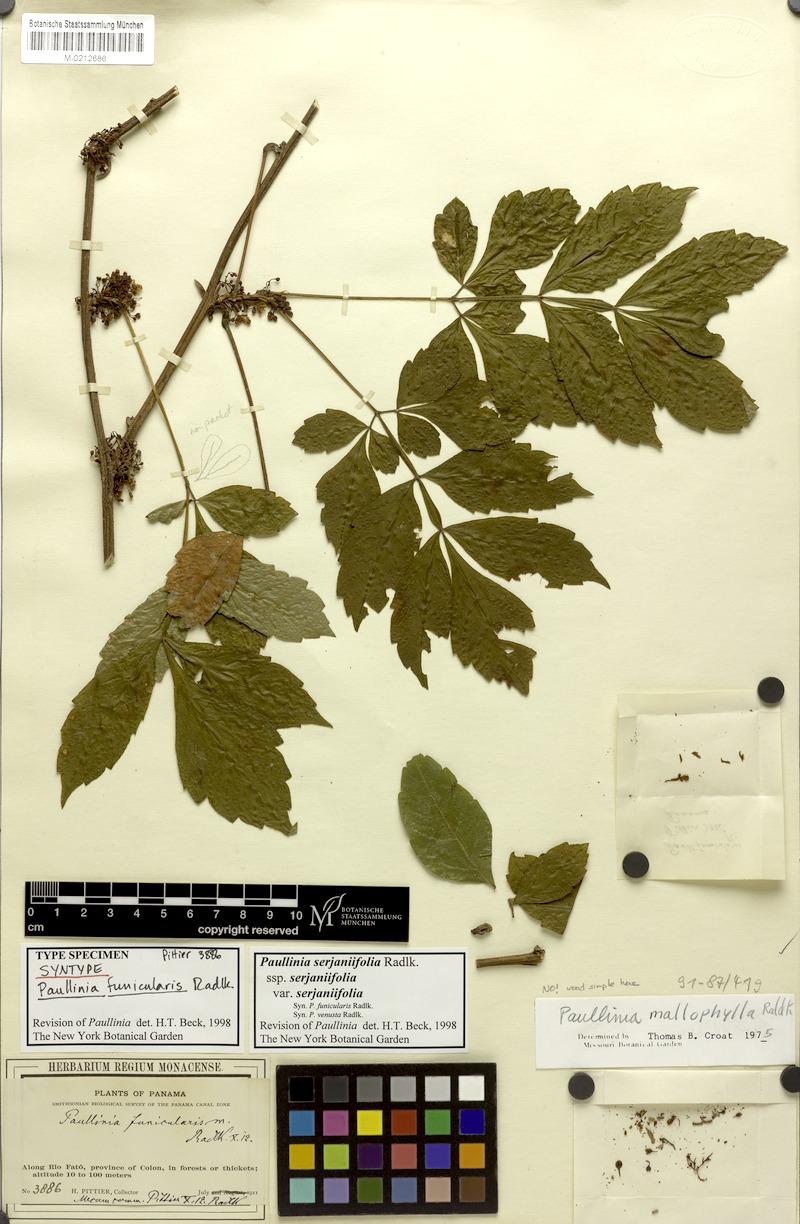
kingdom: Plantae
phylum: Tracheophyta
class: Magnoliopsida
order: Sapindales
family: Sapindaceae
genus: Paullinia
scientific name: Paullinia serjaniifolia
